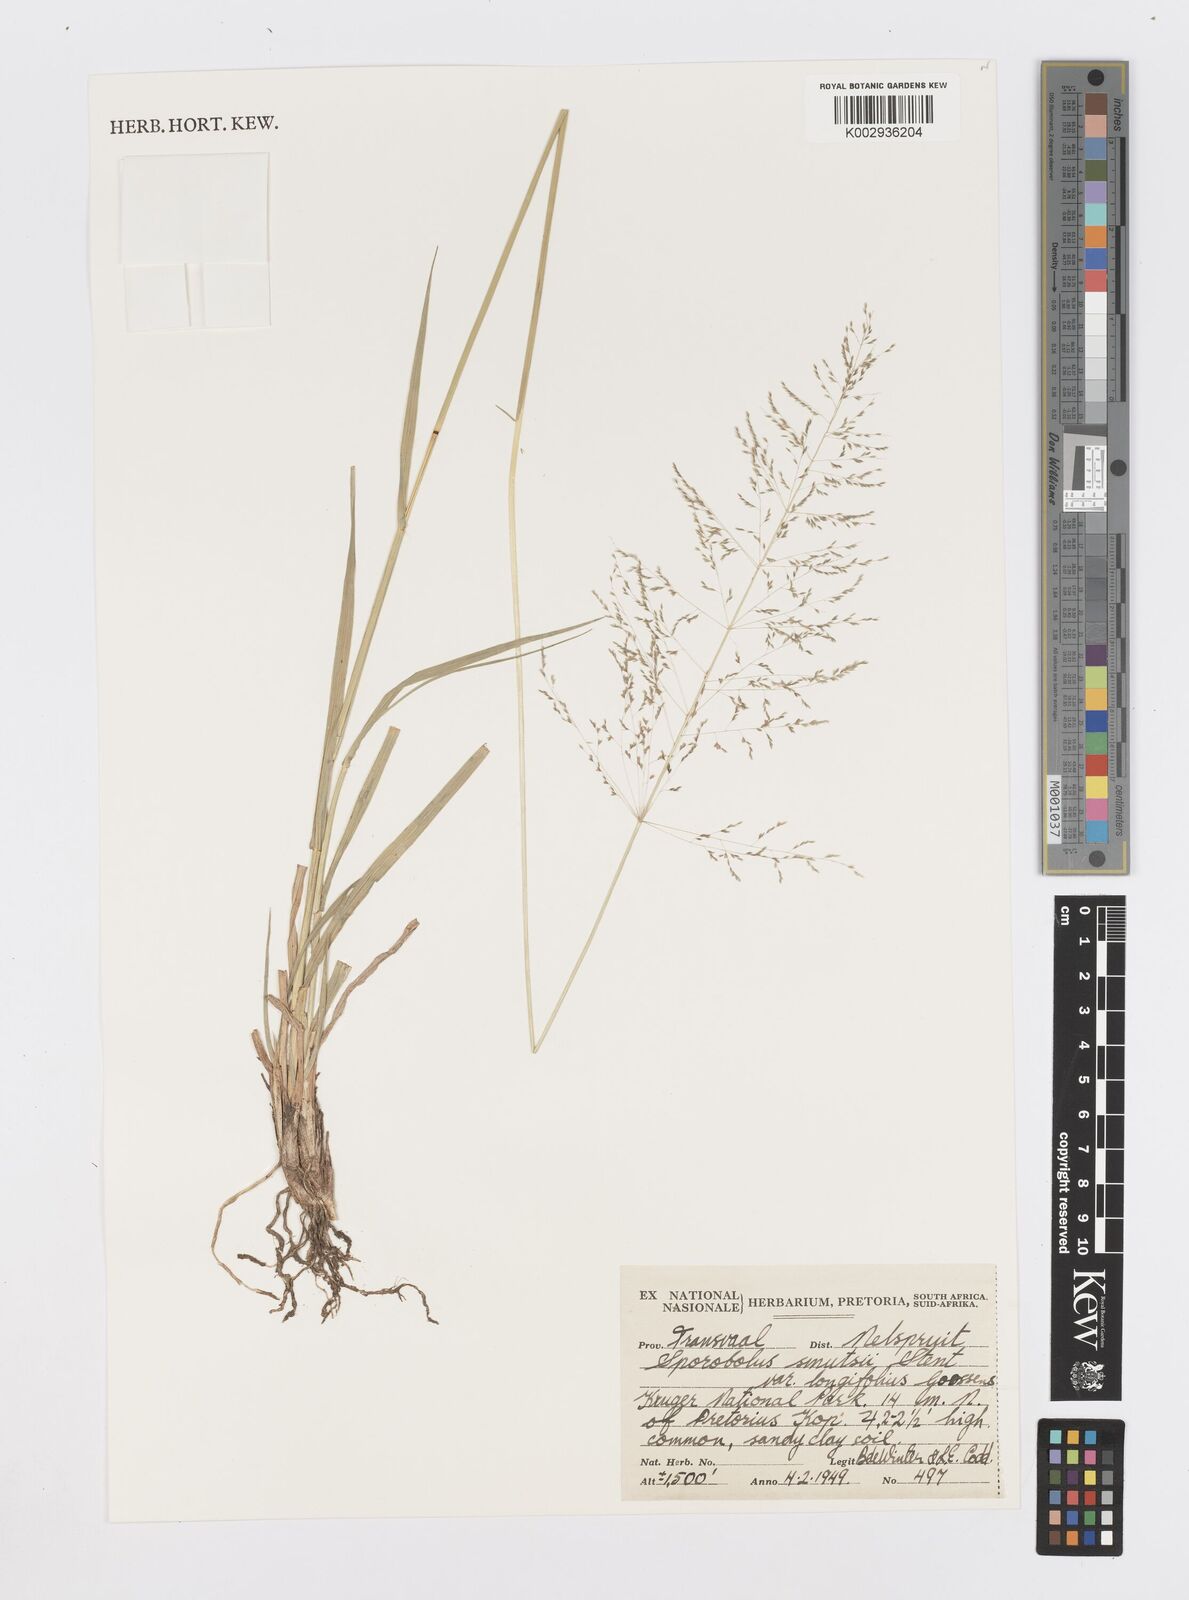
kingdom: Plantae
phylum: Tracheophyta
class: Liliopsida
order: Poales
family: Poaceae
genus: Sporobolus
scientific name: Sporobolus ioclados
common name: Pan dropseed
